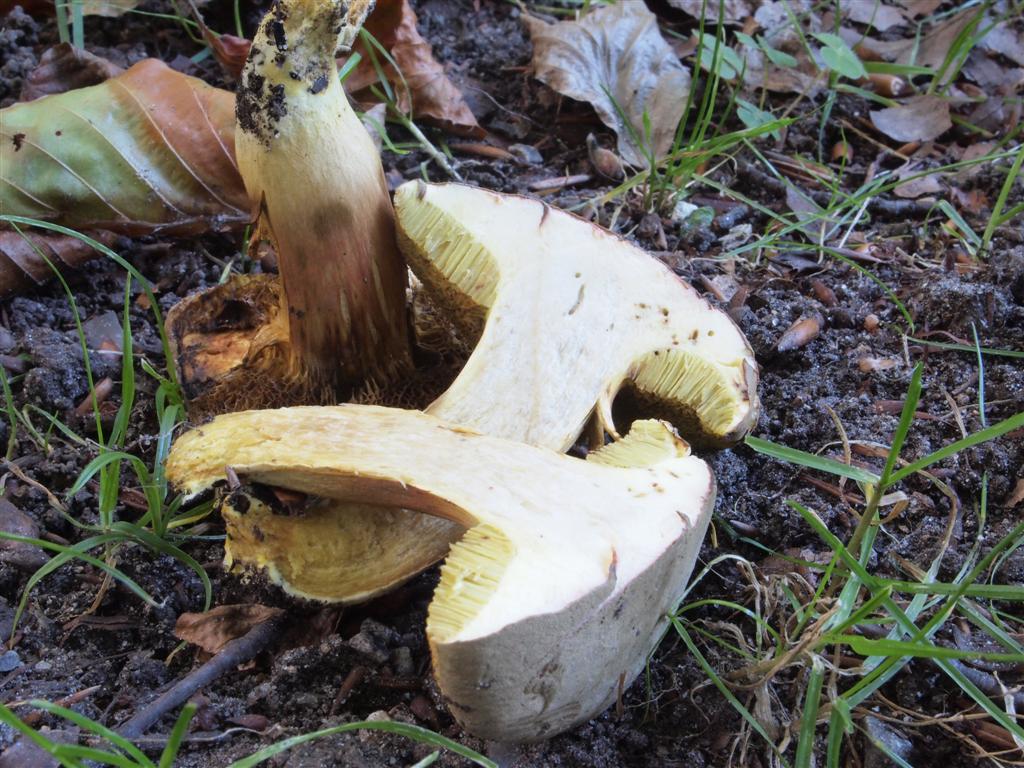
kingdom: Fungi
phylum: Basidiomycota
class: Agaricomycetes
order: Boletales
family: Boletaceae
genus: Xerocomus
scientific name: Xerocomus ferrugineus
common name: vaskeskinds-rørhat
